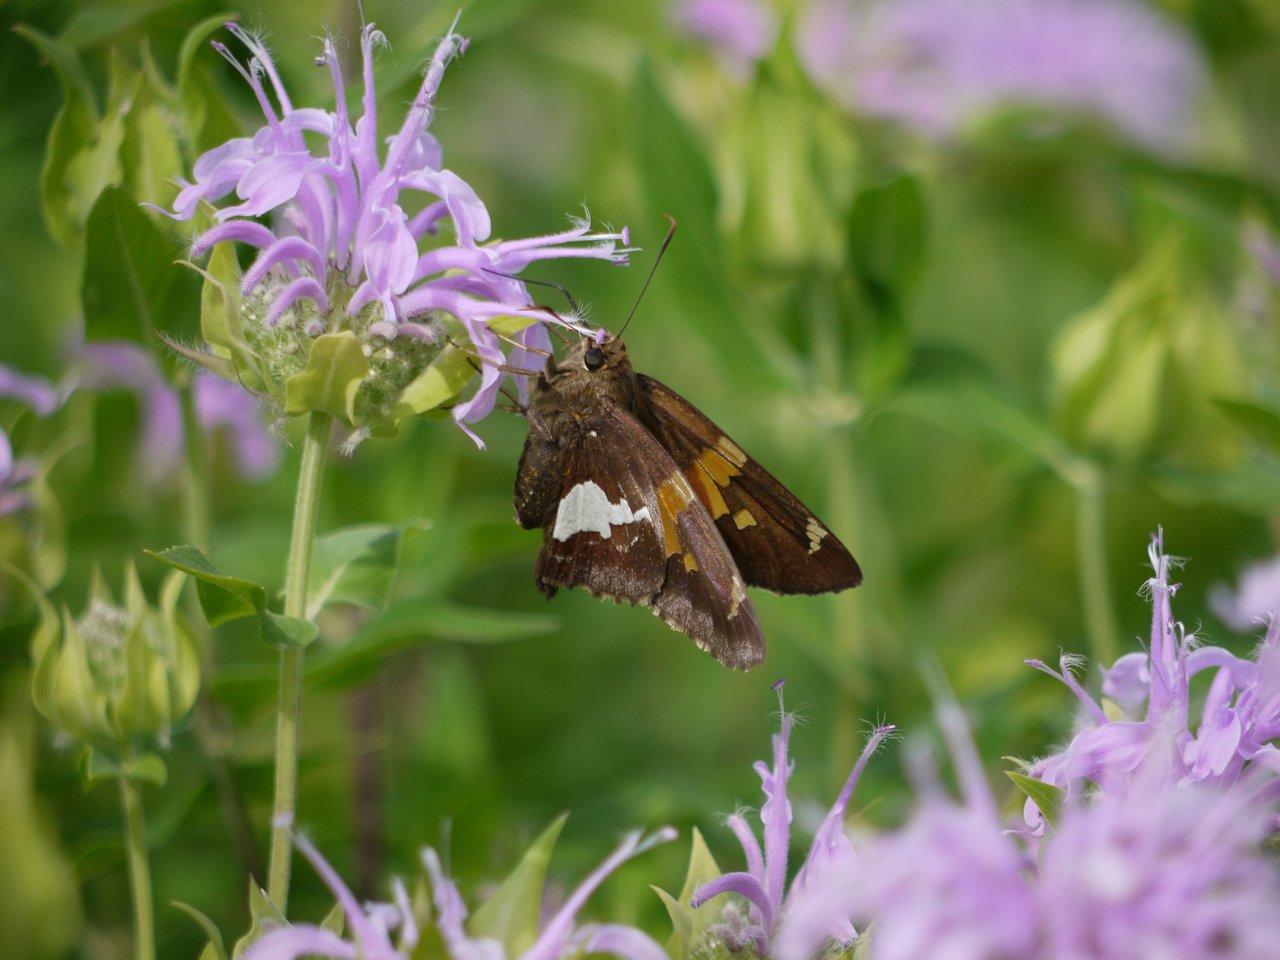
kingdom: Animalia
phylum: Arthropoda
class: Insecta
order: Lepidoptera
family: Hesperiidae
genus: Epargyreus
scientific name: Epargyreus clarus
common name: Silver-spotted Skipper
